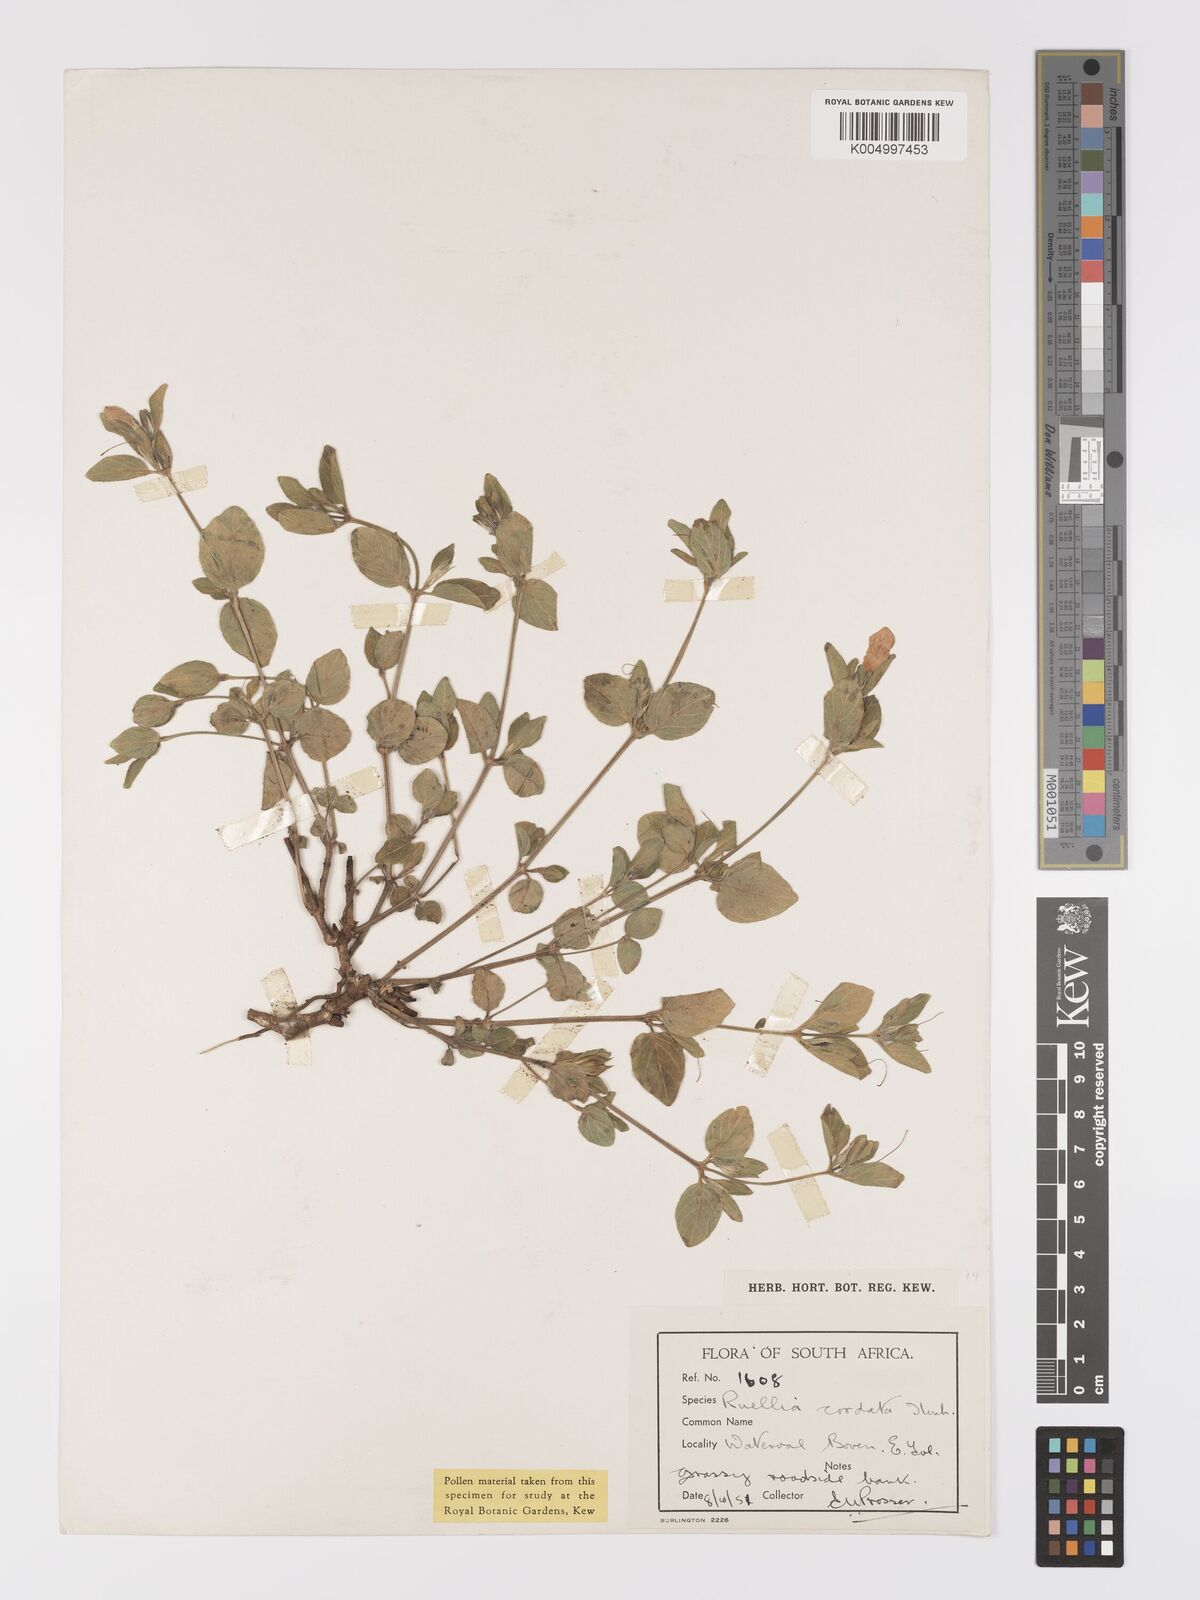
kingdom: Plantae
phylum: Tracheophyta
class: Magnoliopsida
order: Lamiales
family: Acanthaceae
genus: Ruellia
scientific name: Ruellia cordata
